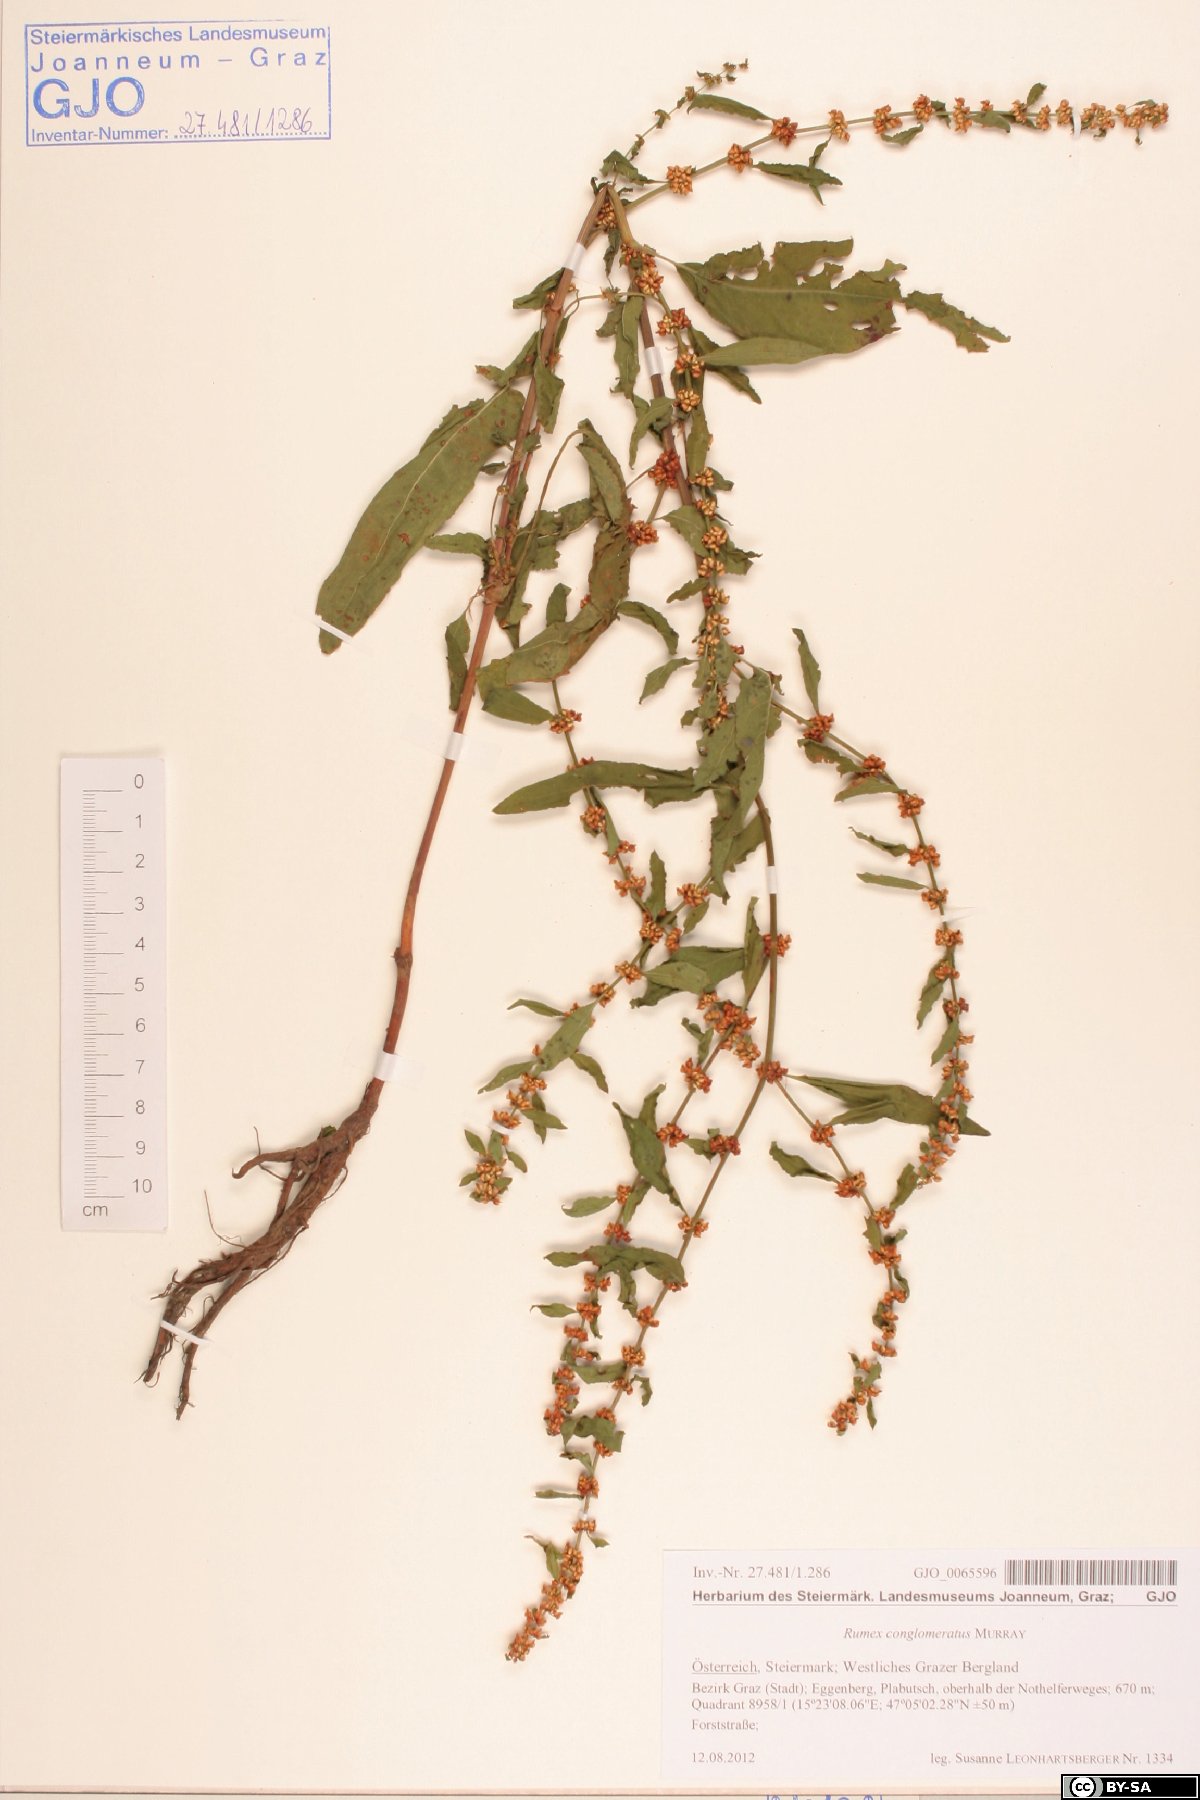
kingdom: Plantae
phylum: Tracheophyta
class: Magnoliopsida
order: Caryophyllales
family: Polygonaceae
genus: Rumex
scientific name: Rumex conglomeratus
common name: Clustered dock
